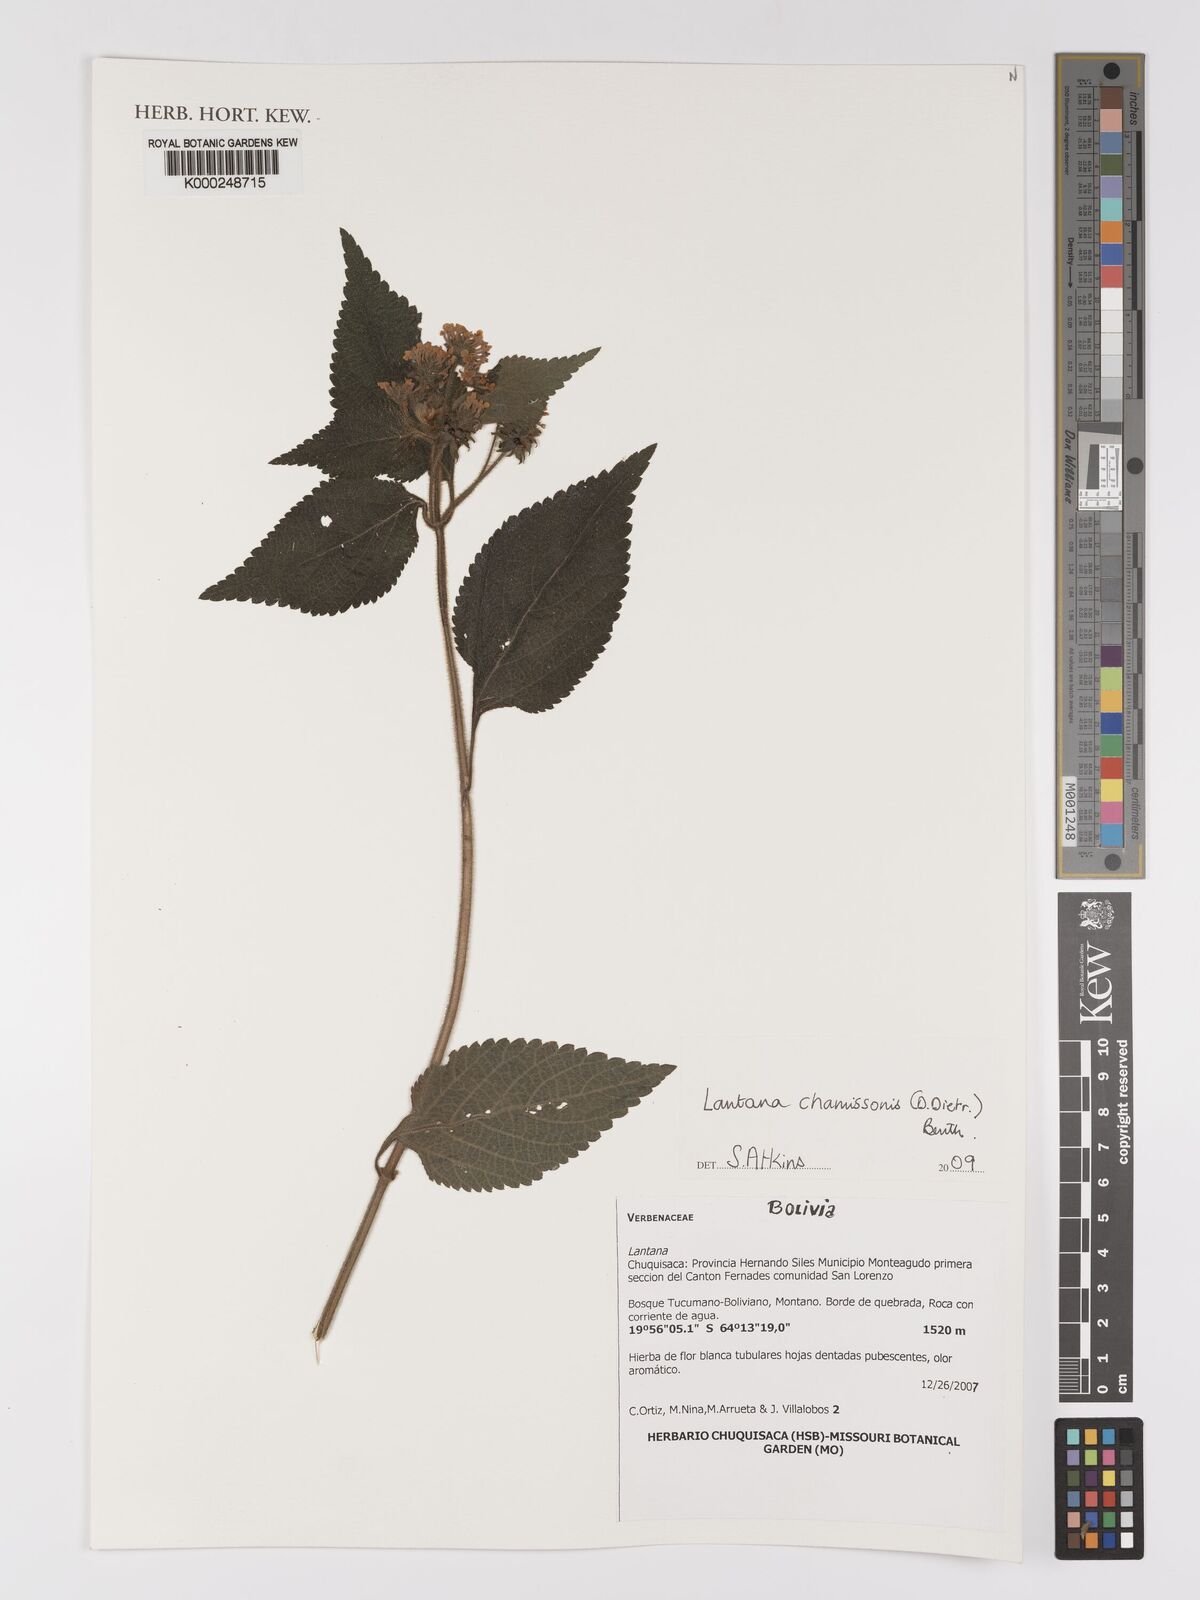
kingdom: Plantae
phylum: Tracheophyta
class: Magnoliopsida
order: Lamiales
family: Verbenaceae
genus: Lantana
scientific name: Lantana
